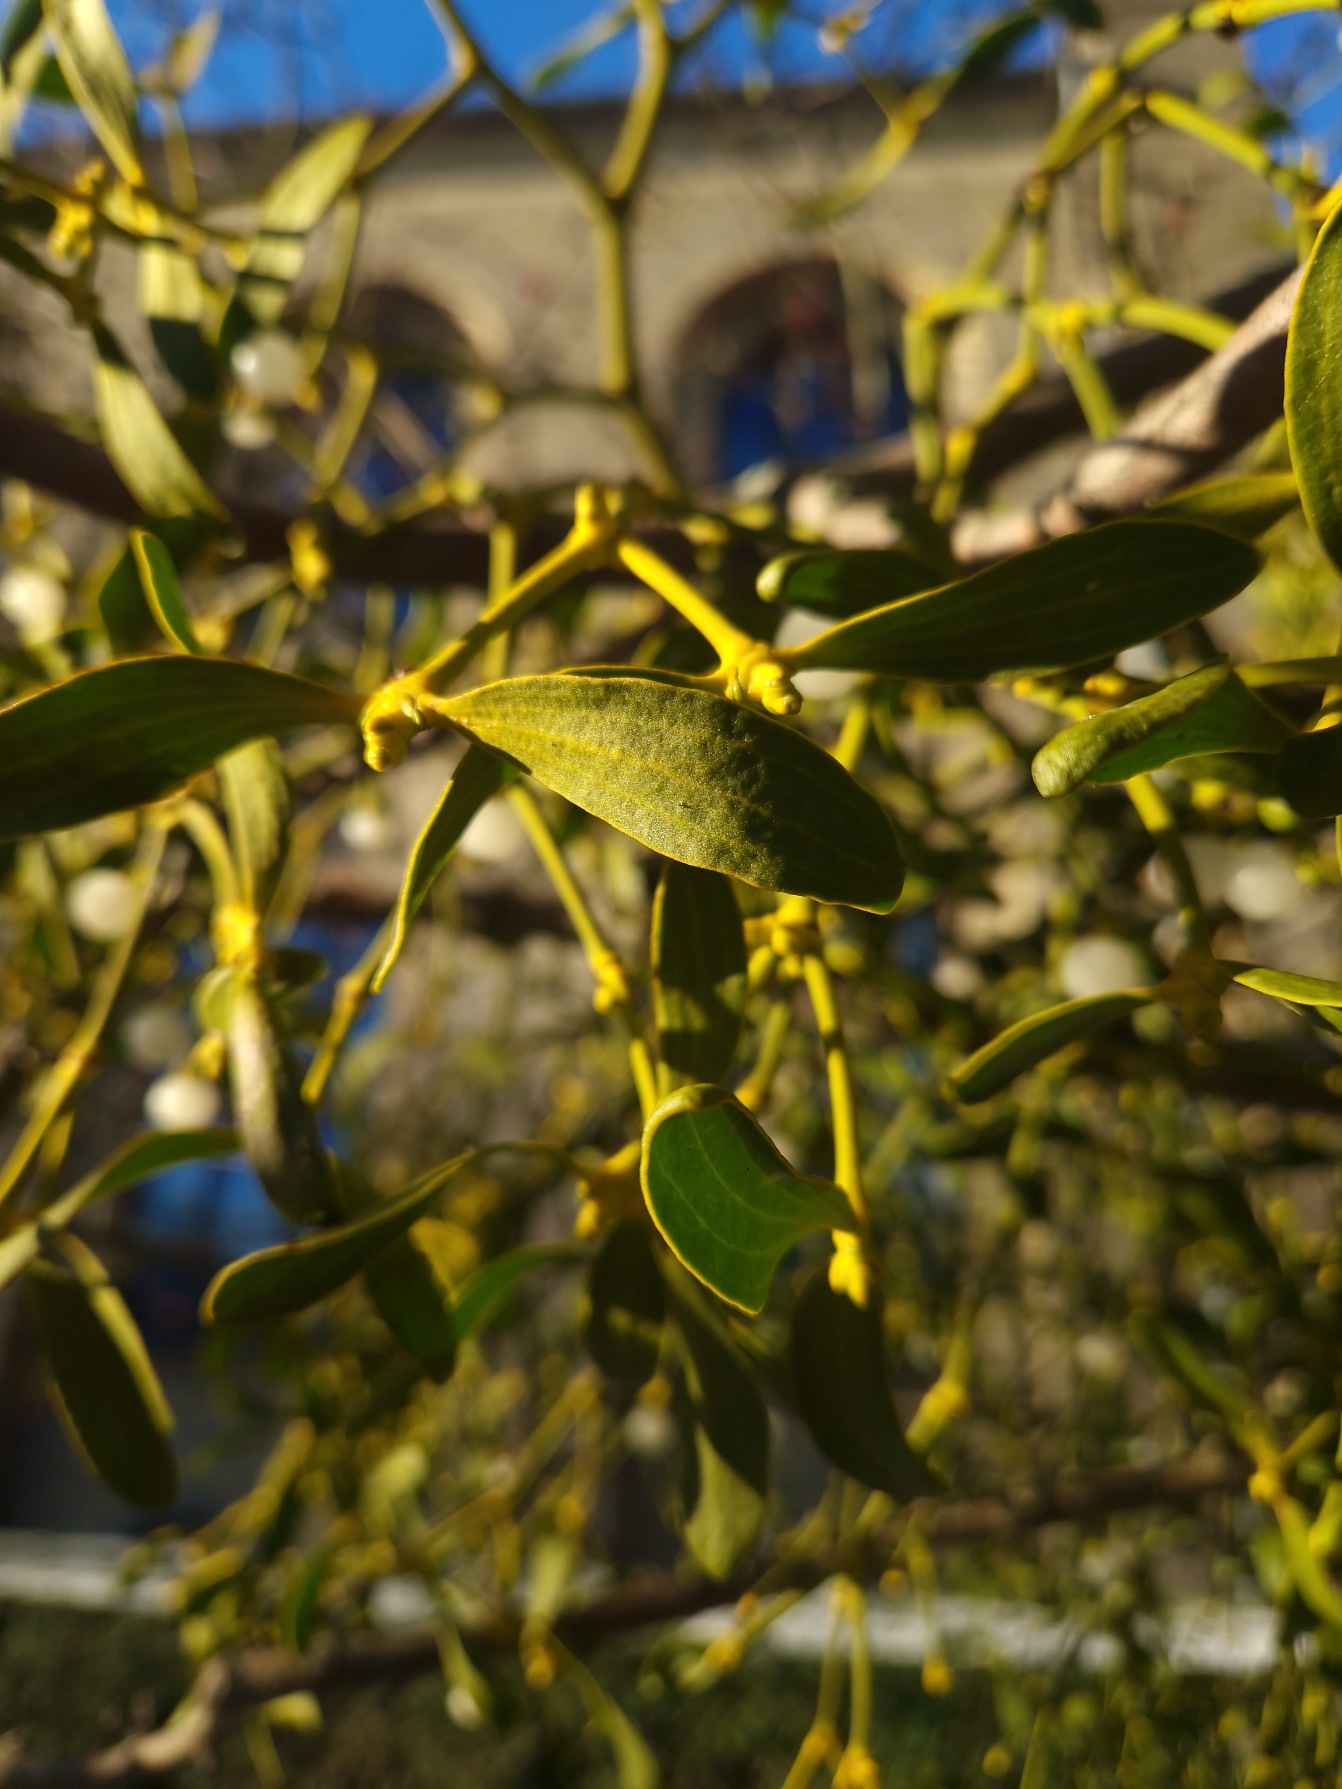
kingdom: Plantae
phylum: Tracheophyta
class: Magnoliopsida
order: Santalales
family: Viscaceae
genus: Viscum
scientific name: Viscum album
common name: Mistelten
